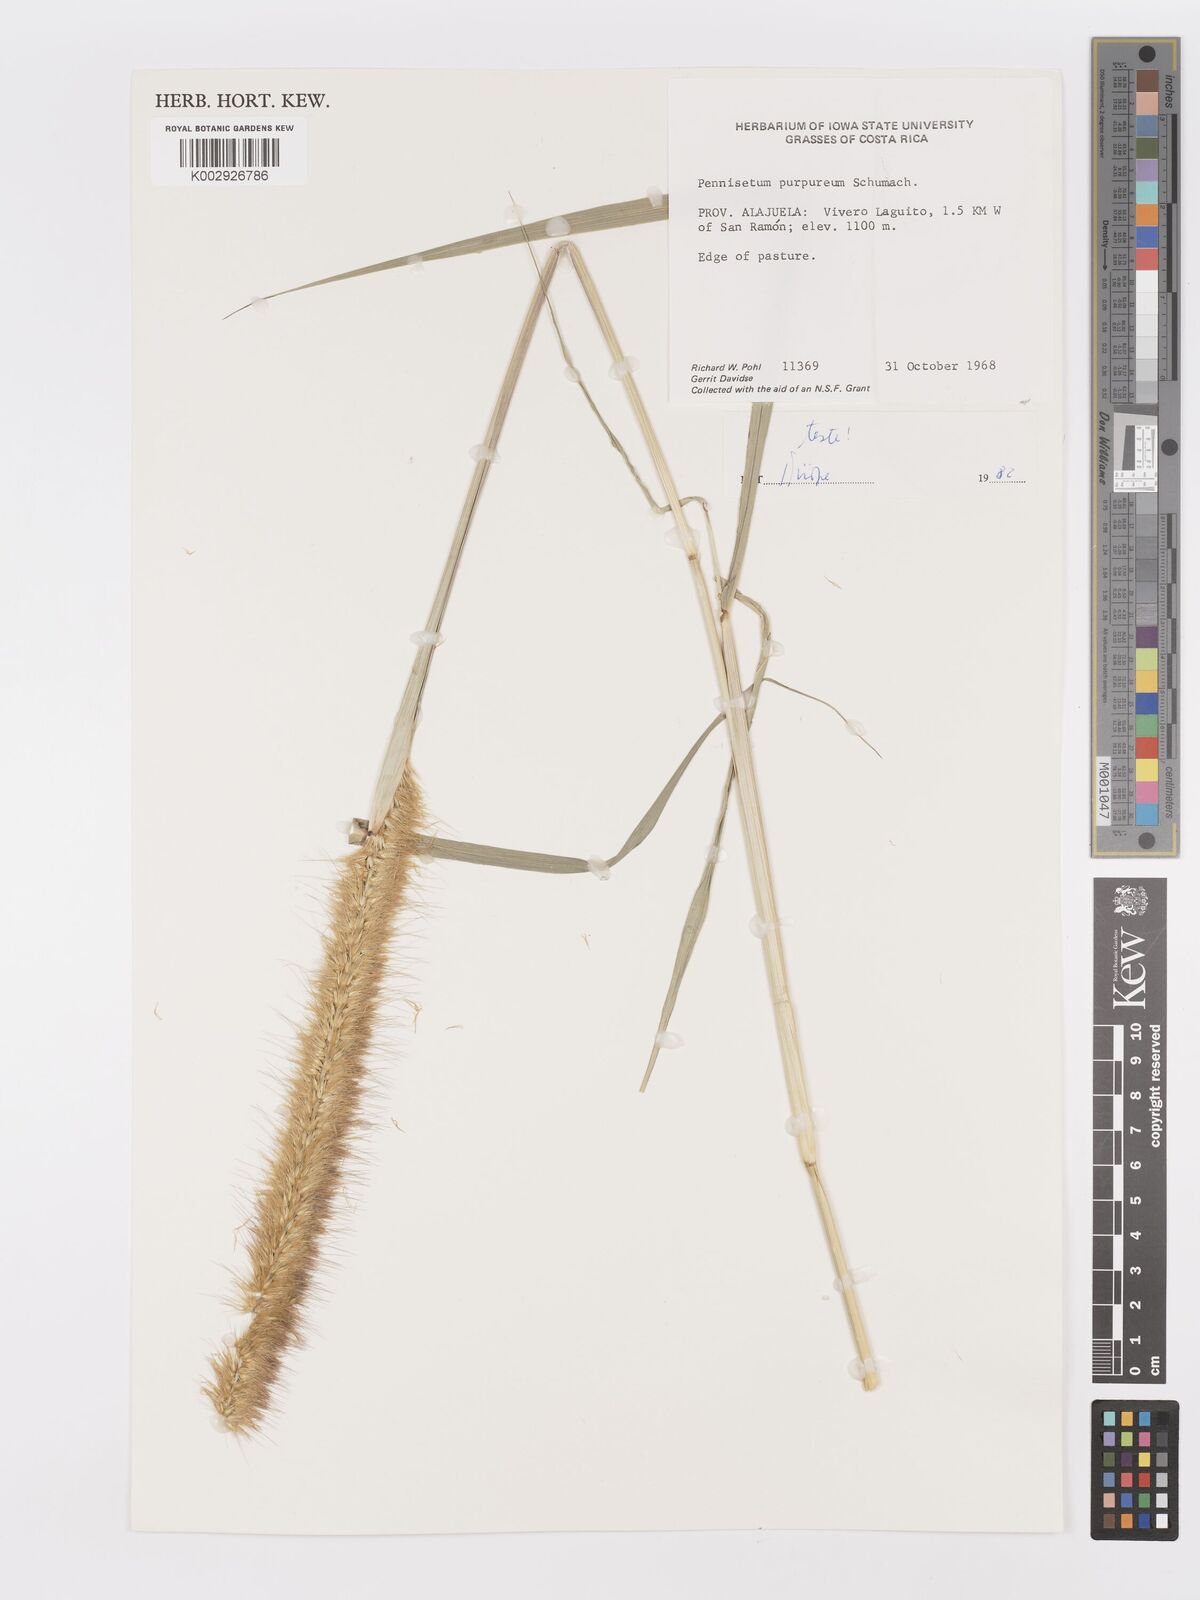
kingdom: Plantae
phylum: Tracheophyta
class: Liliopsida
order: Poales
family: Poaceae
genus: Cenchrus
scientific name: Cenchrus purpureus
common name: Elephant grass
